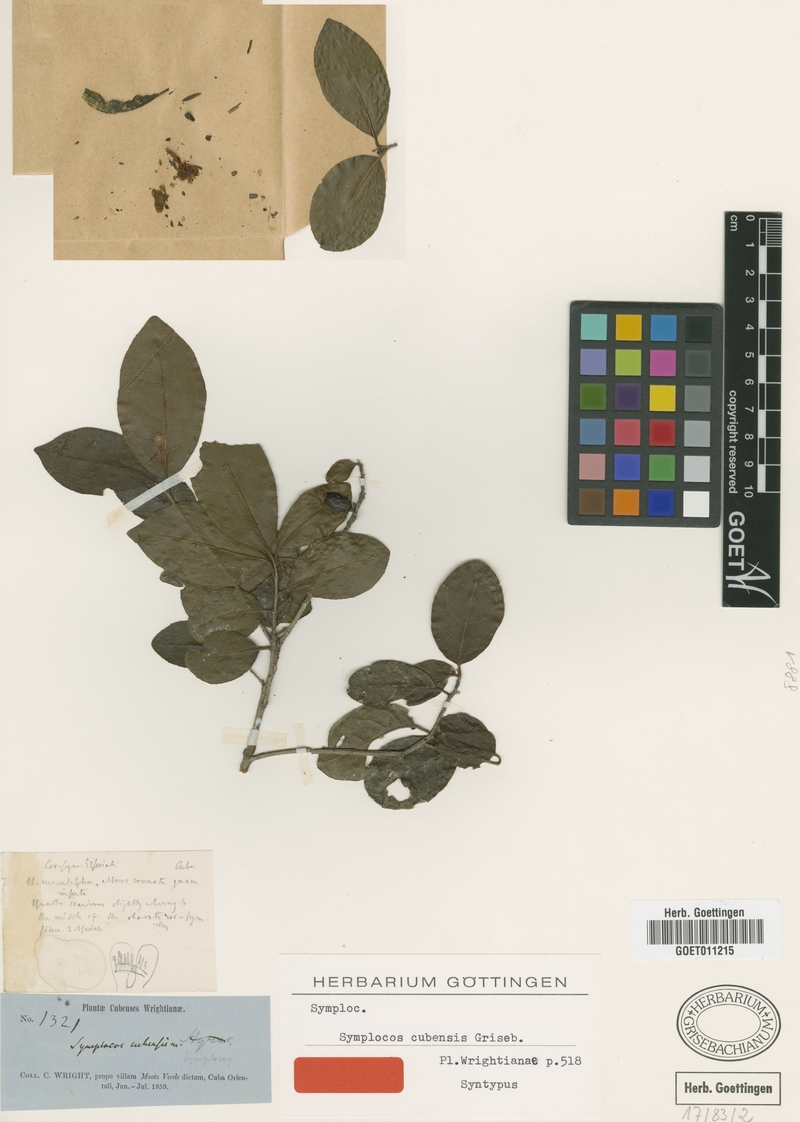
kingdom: Plantae
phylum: Tracheophyta
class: Magnoliopsida
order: Ericales
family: Symplocaceae
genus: Symplocos
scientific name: Symplocos cubensis
